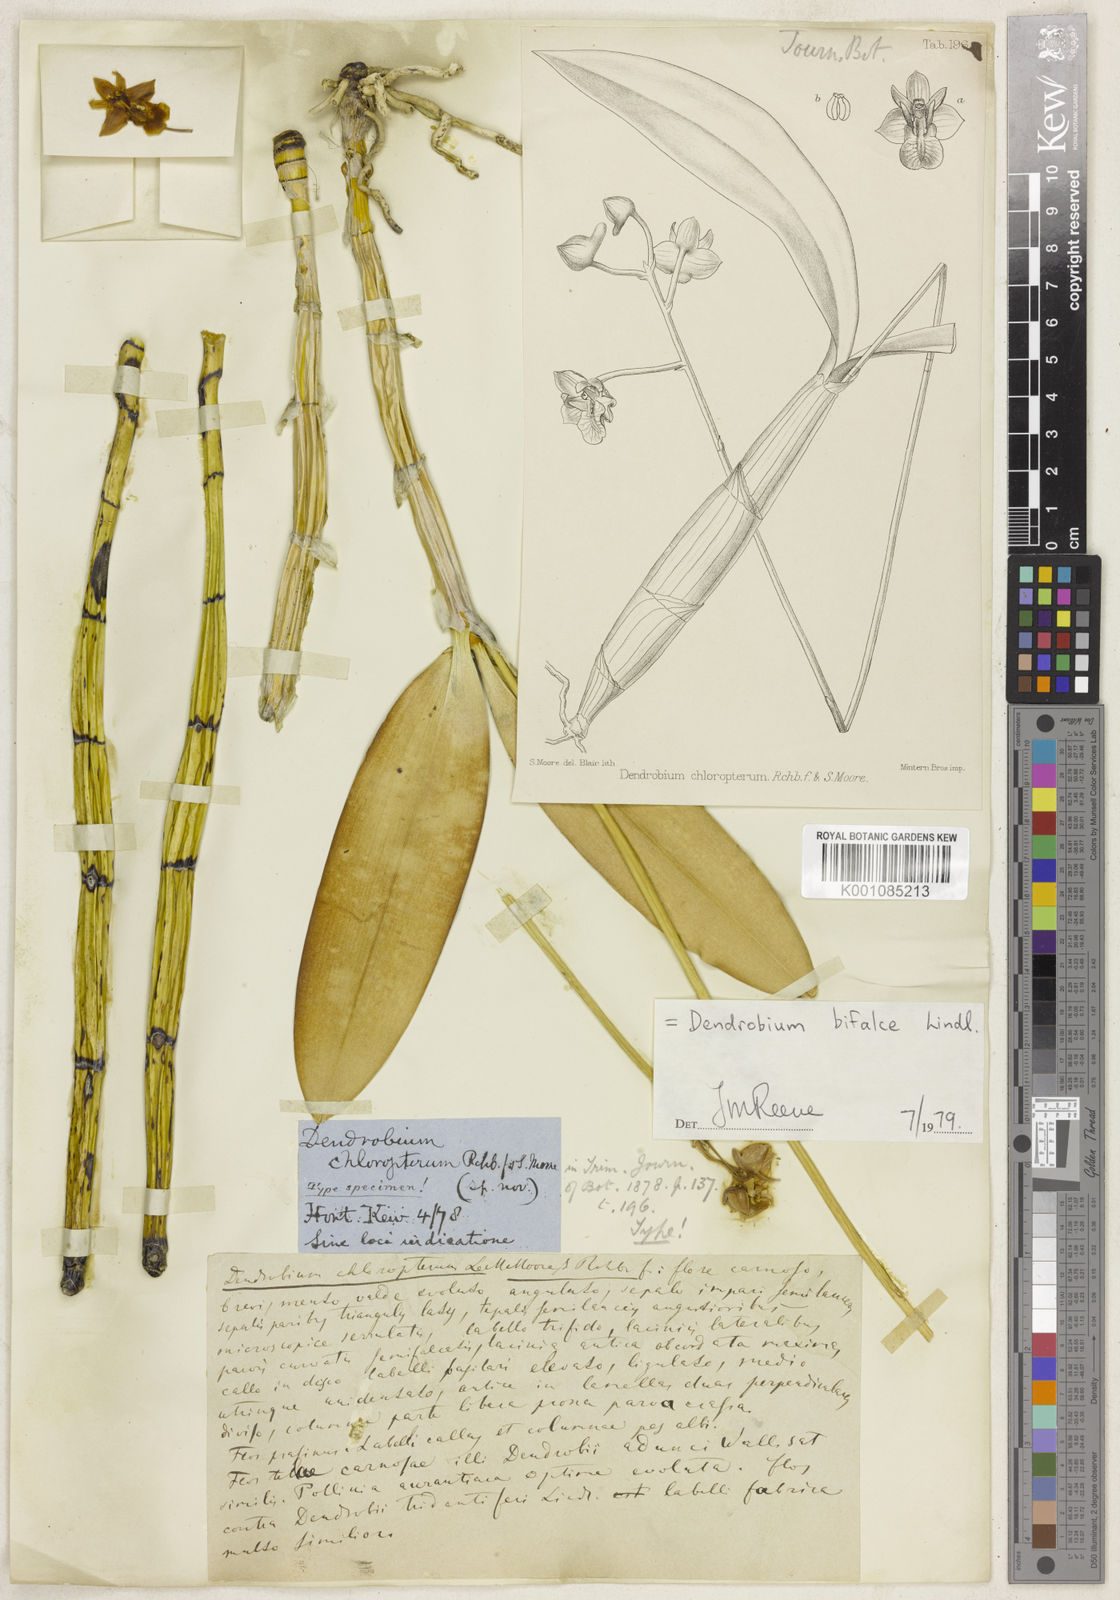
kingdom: Plantae
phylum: Tracheophyta
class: Liliopsida
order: Asparagales
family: Orchidaceae
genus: Dendrobium
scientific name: Dendrobium bifalce
